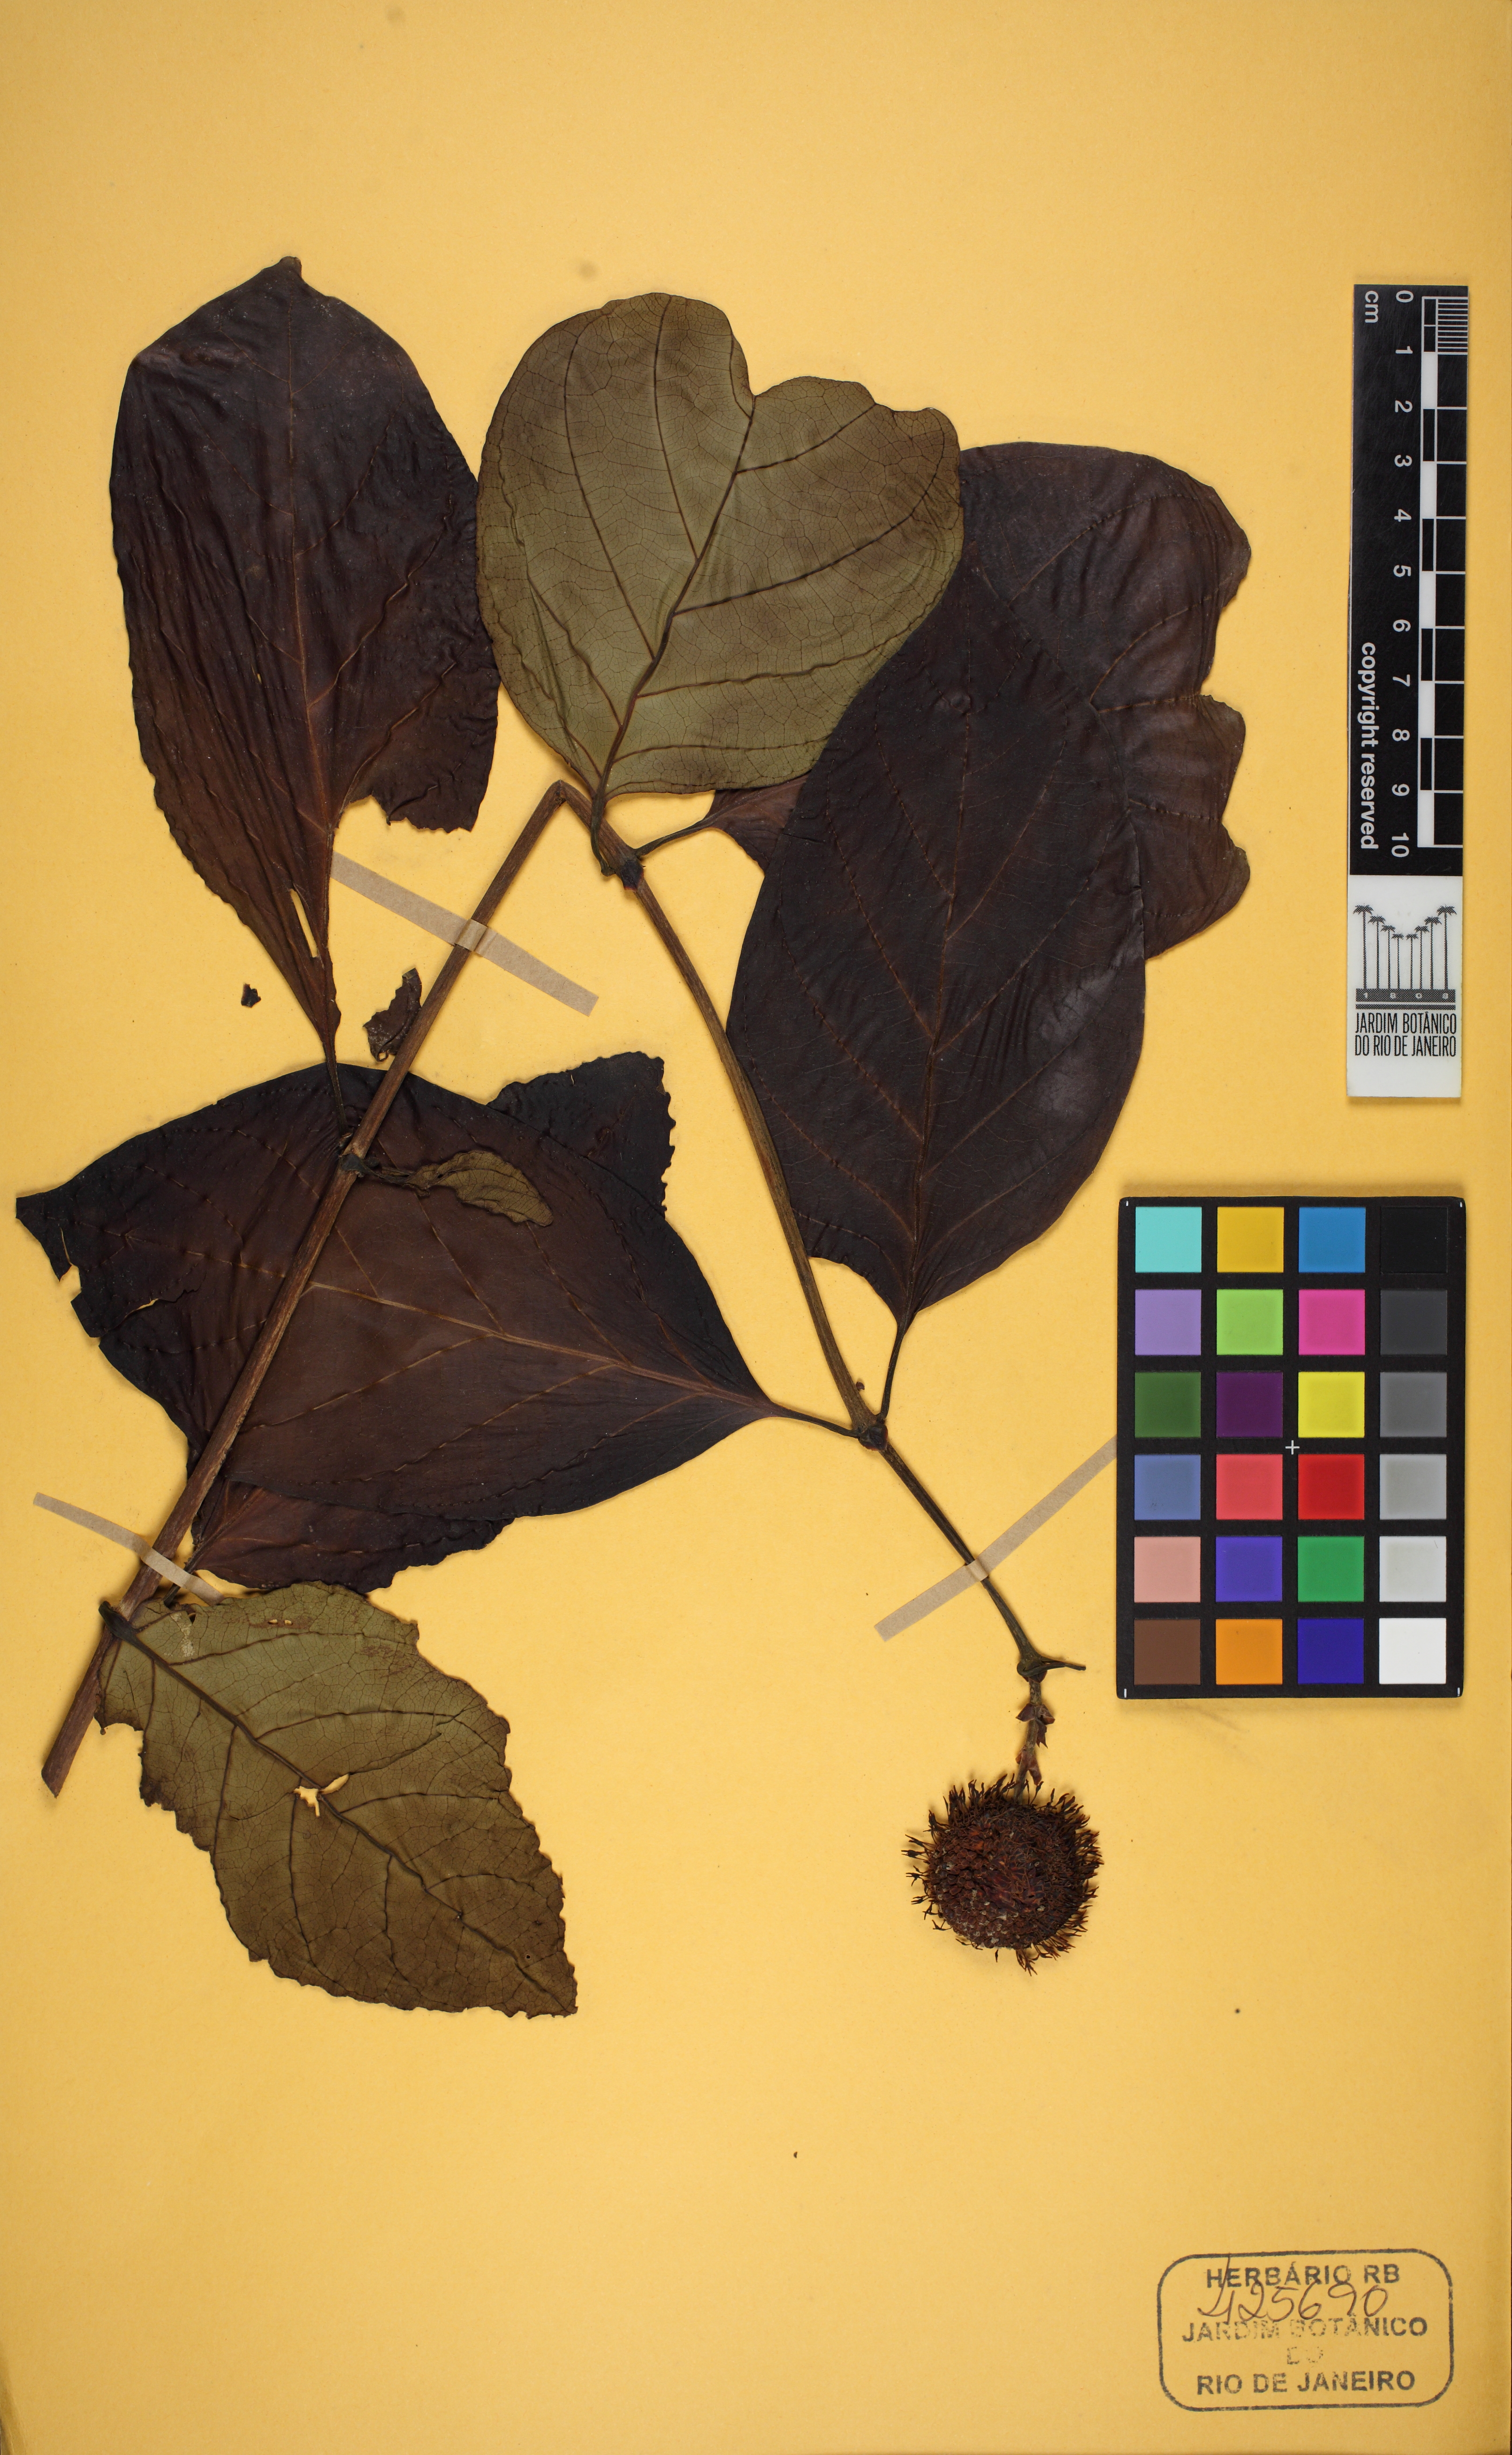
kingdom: Plantae
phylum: Tracheophyta
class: Magnoliopsida
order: Gentianales
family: Rubiaceae
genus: Breonia
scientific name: Breonia
